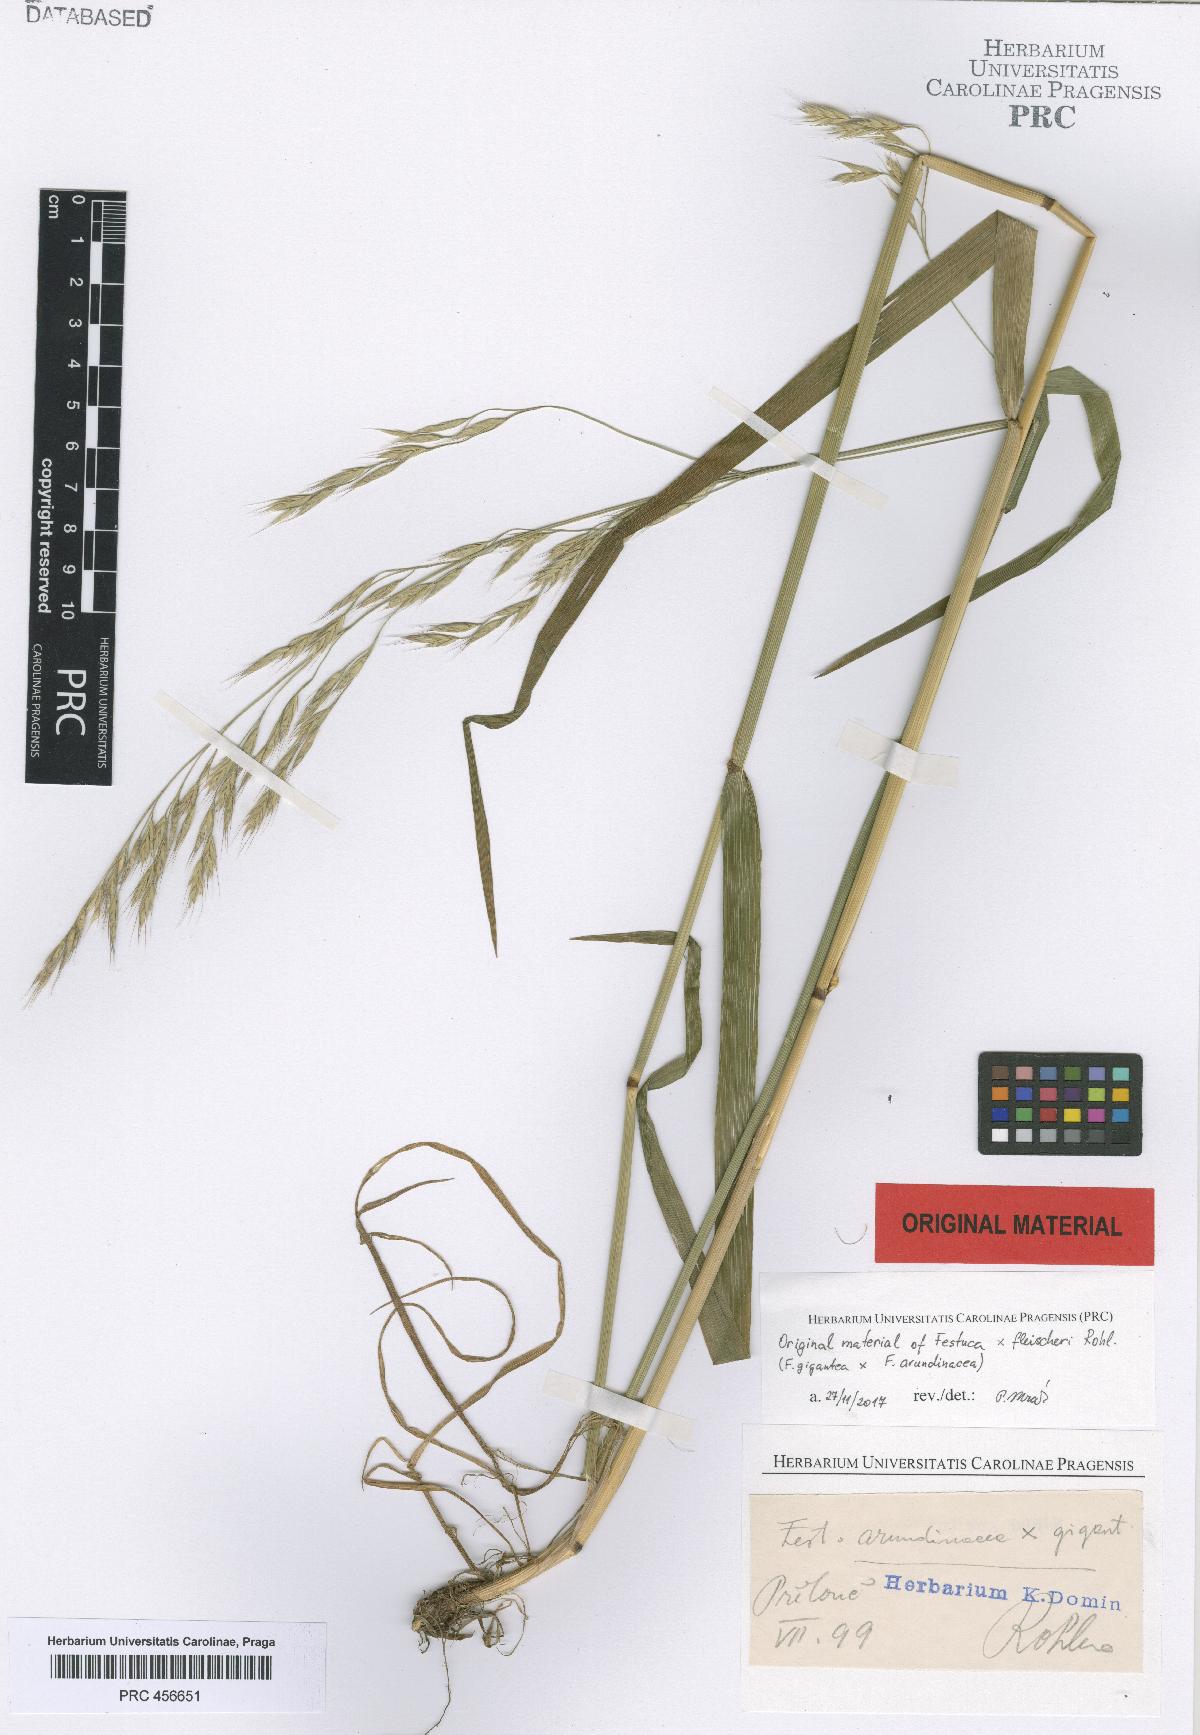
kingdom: Plantae
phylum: Tracheophyta
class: Liliopsida
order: Poales
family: Poaceae
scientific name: Poaceae
